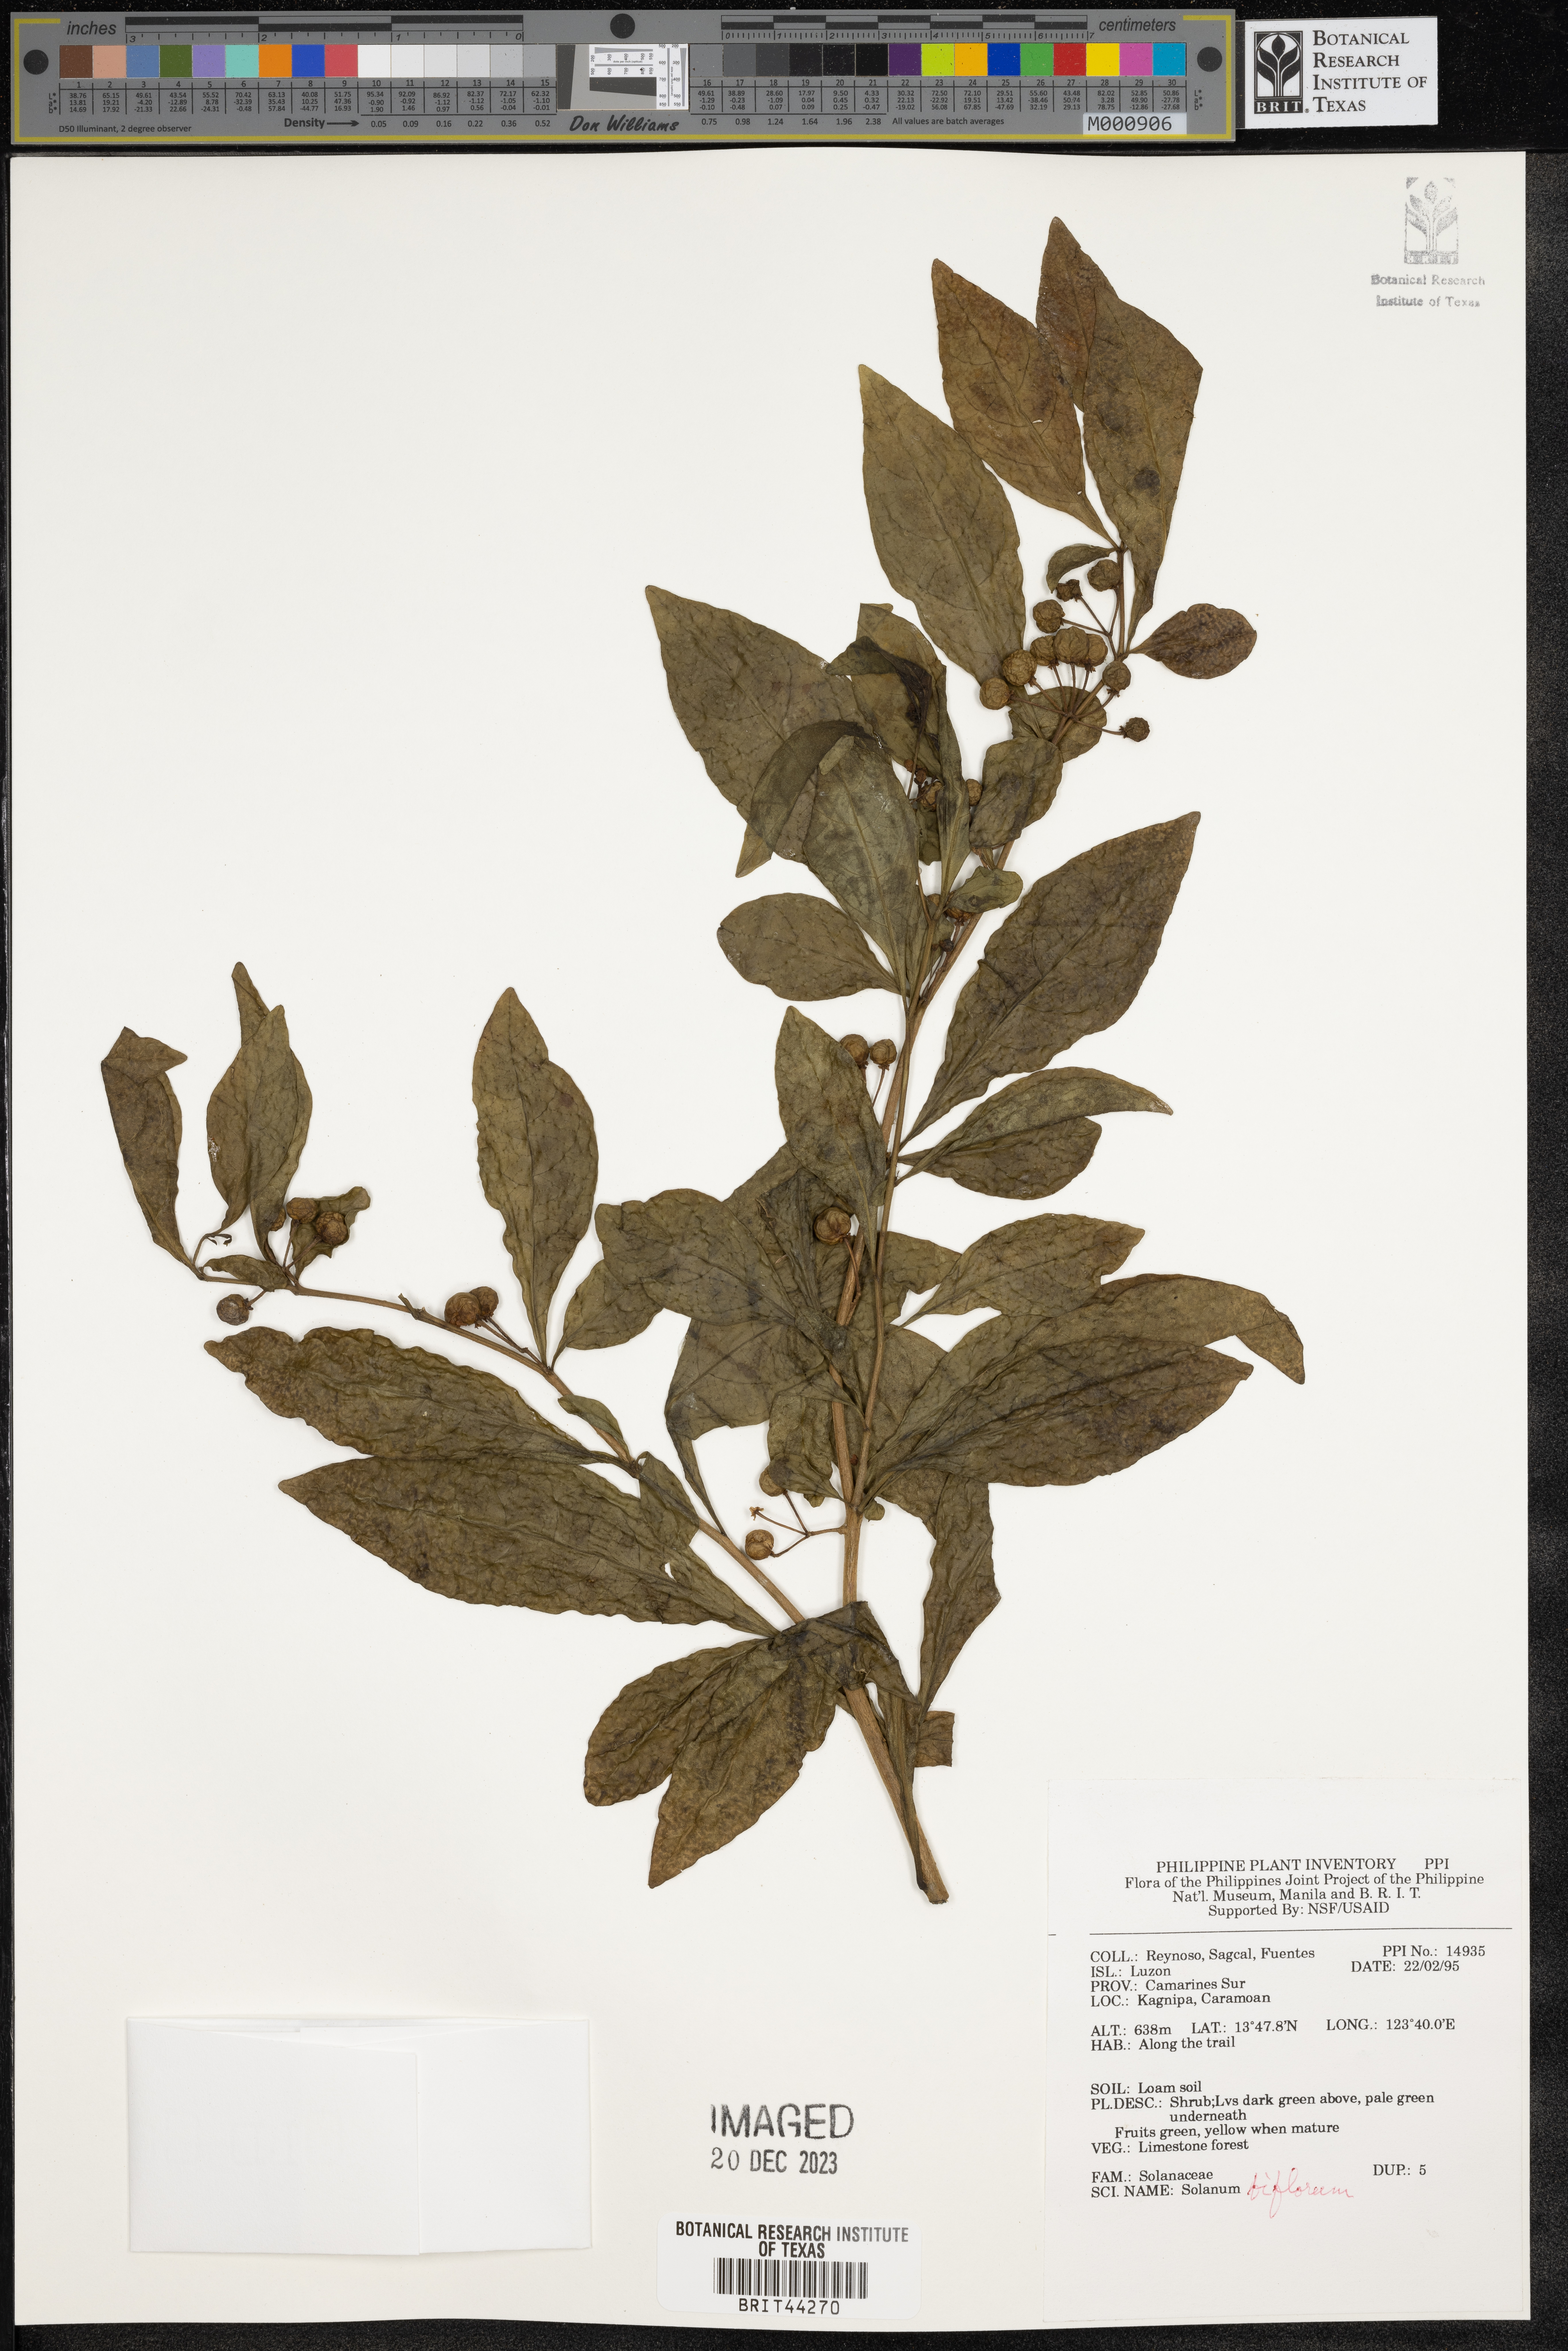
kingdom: Plantae
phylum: Tracheophyta
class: Magnoliopsida
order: Solanales
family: Solanaceae
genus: Lycianthes
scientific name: Lycianthes biflora
